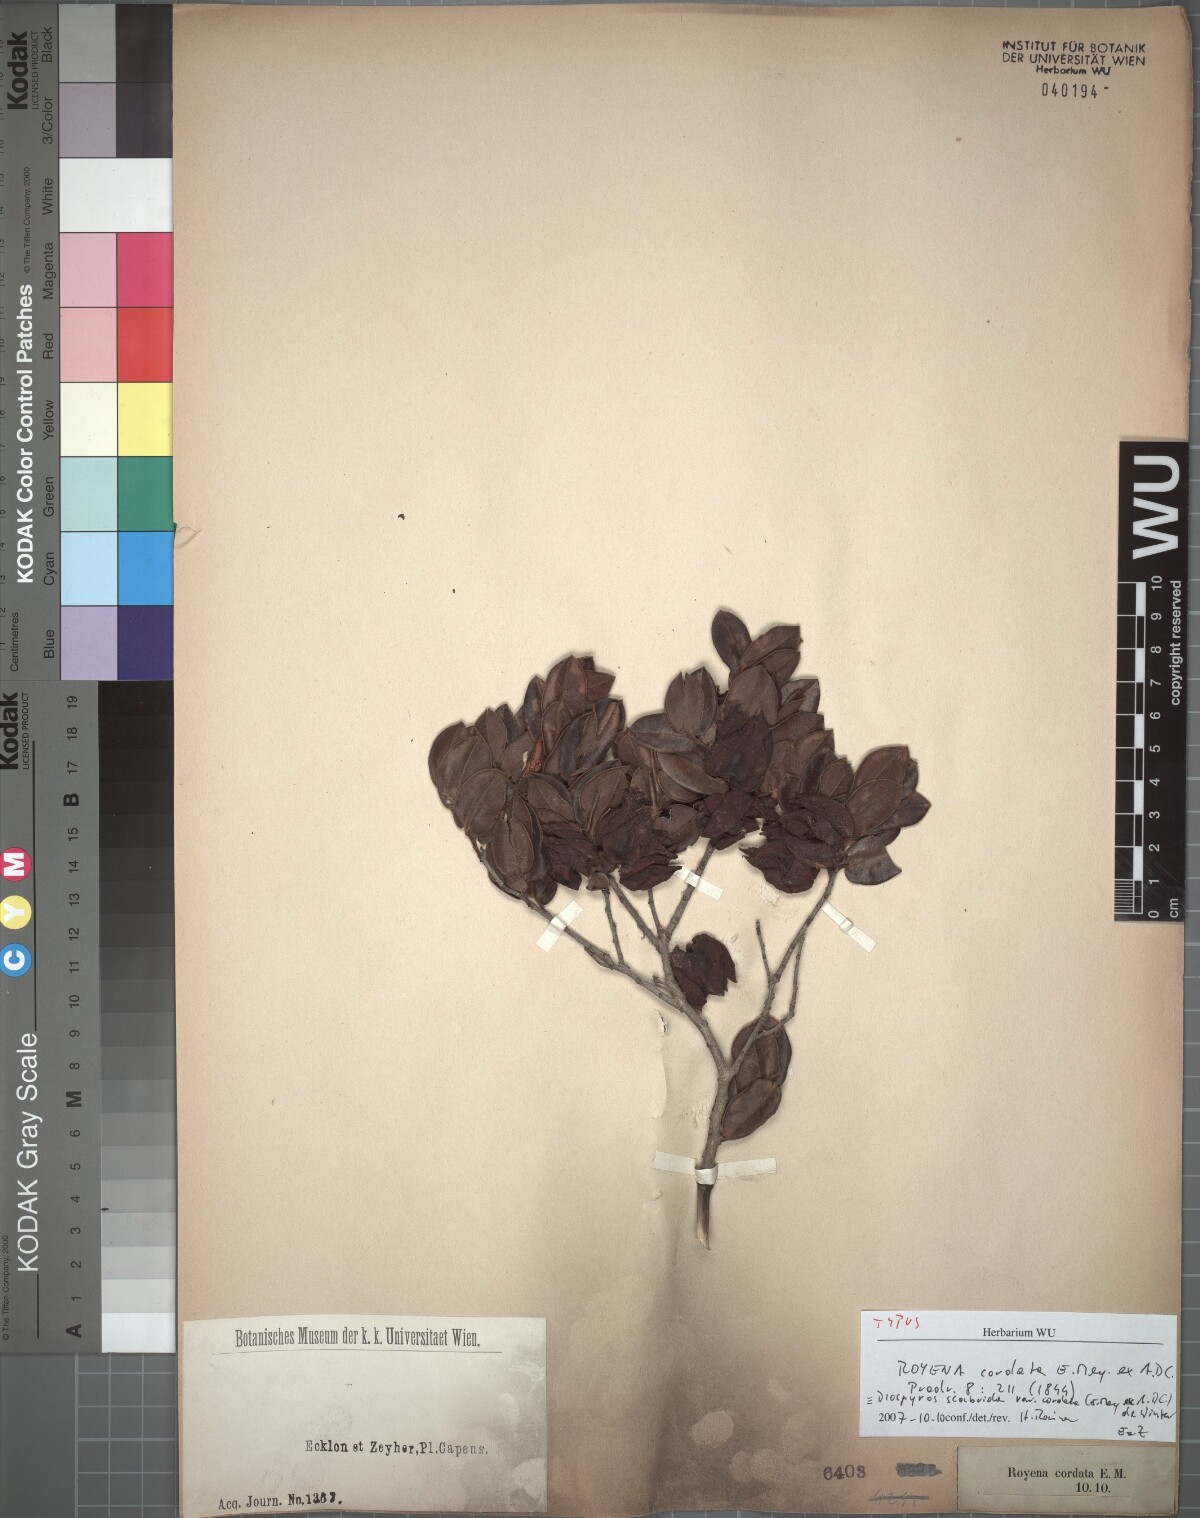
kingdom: Plantae
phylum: Tracheophyta
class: Magnoliopsida
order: Ericales
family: Ebenaceae
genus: Diospyros
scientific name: Diospyros scabrida
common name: Coastal bladder-nut
